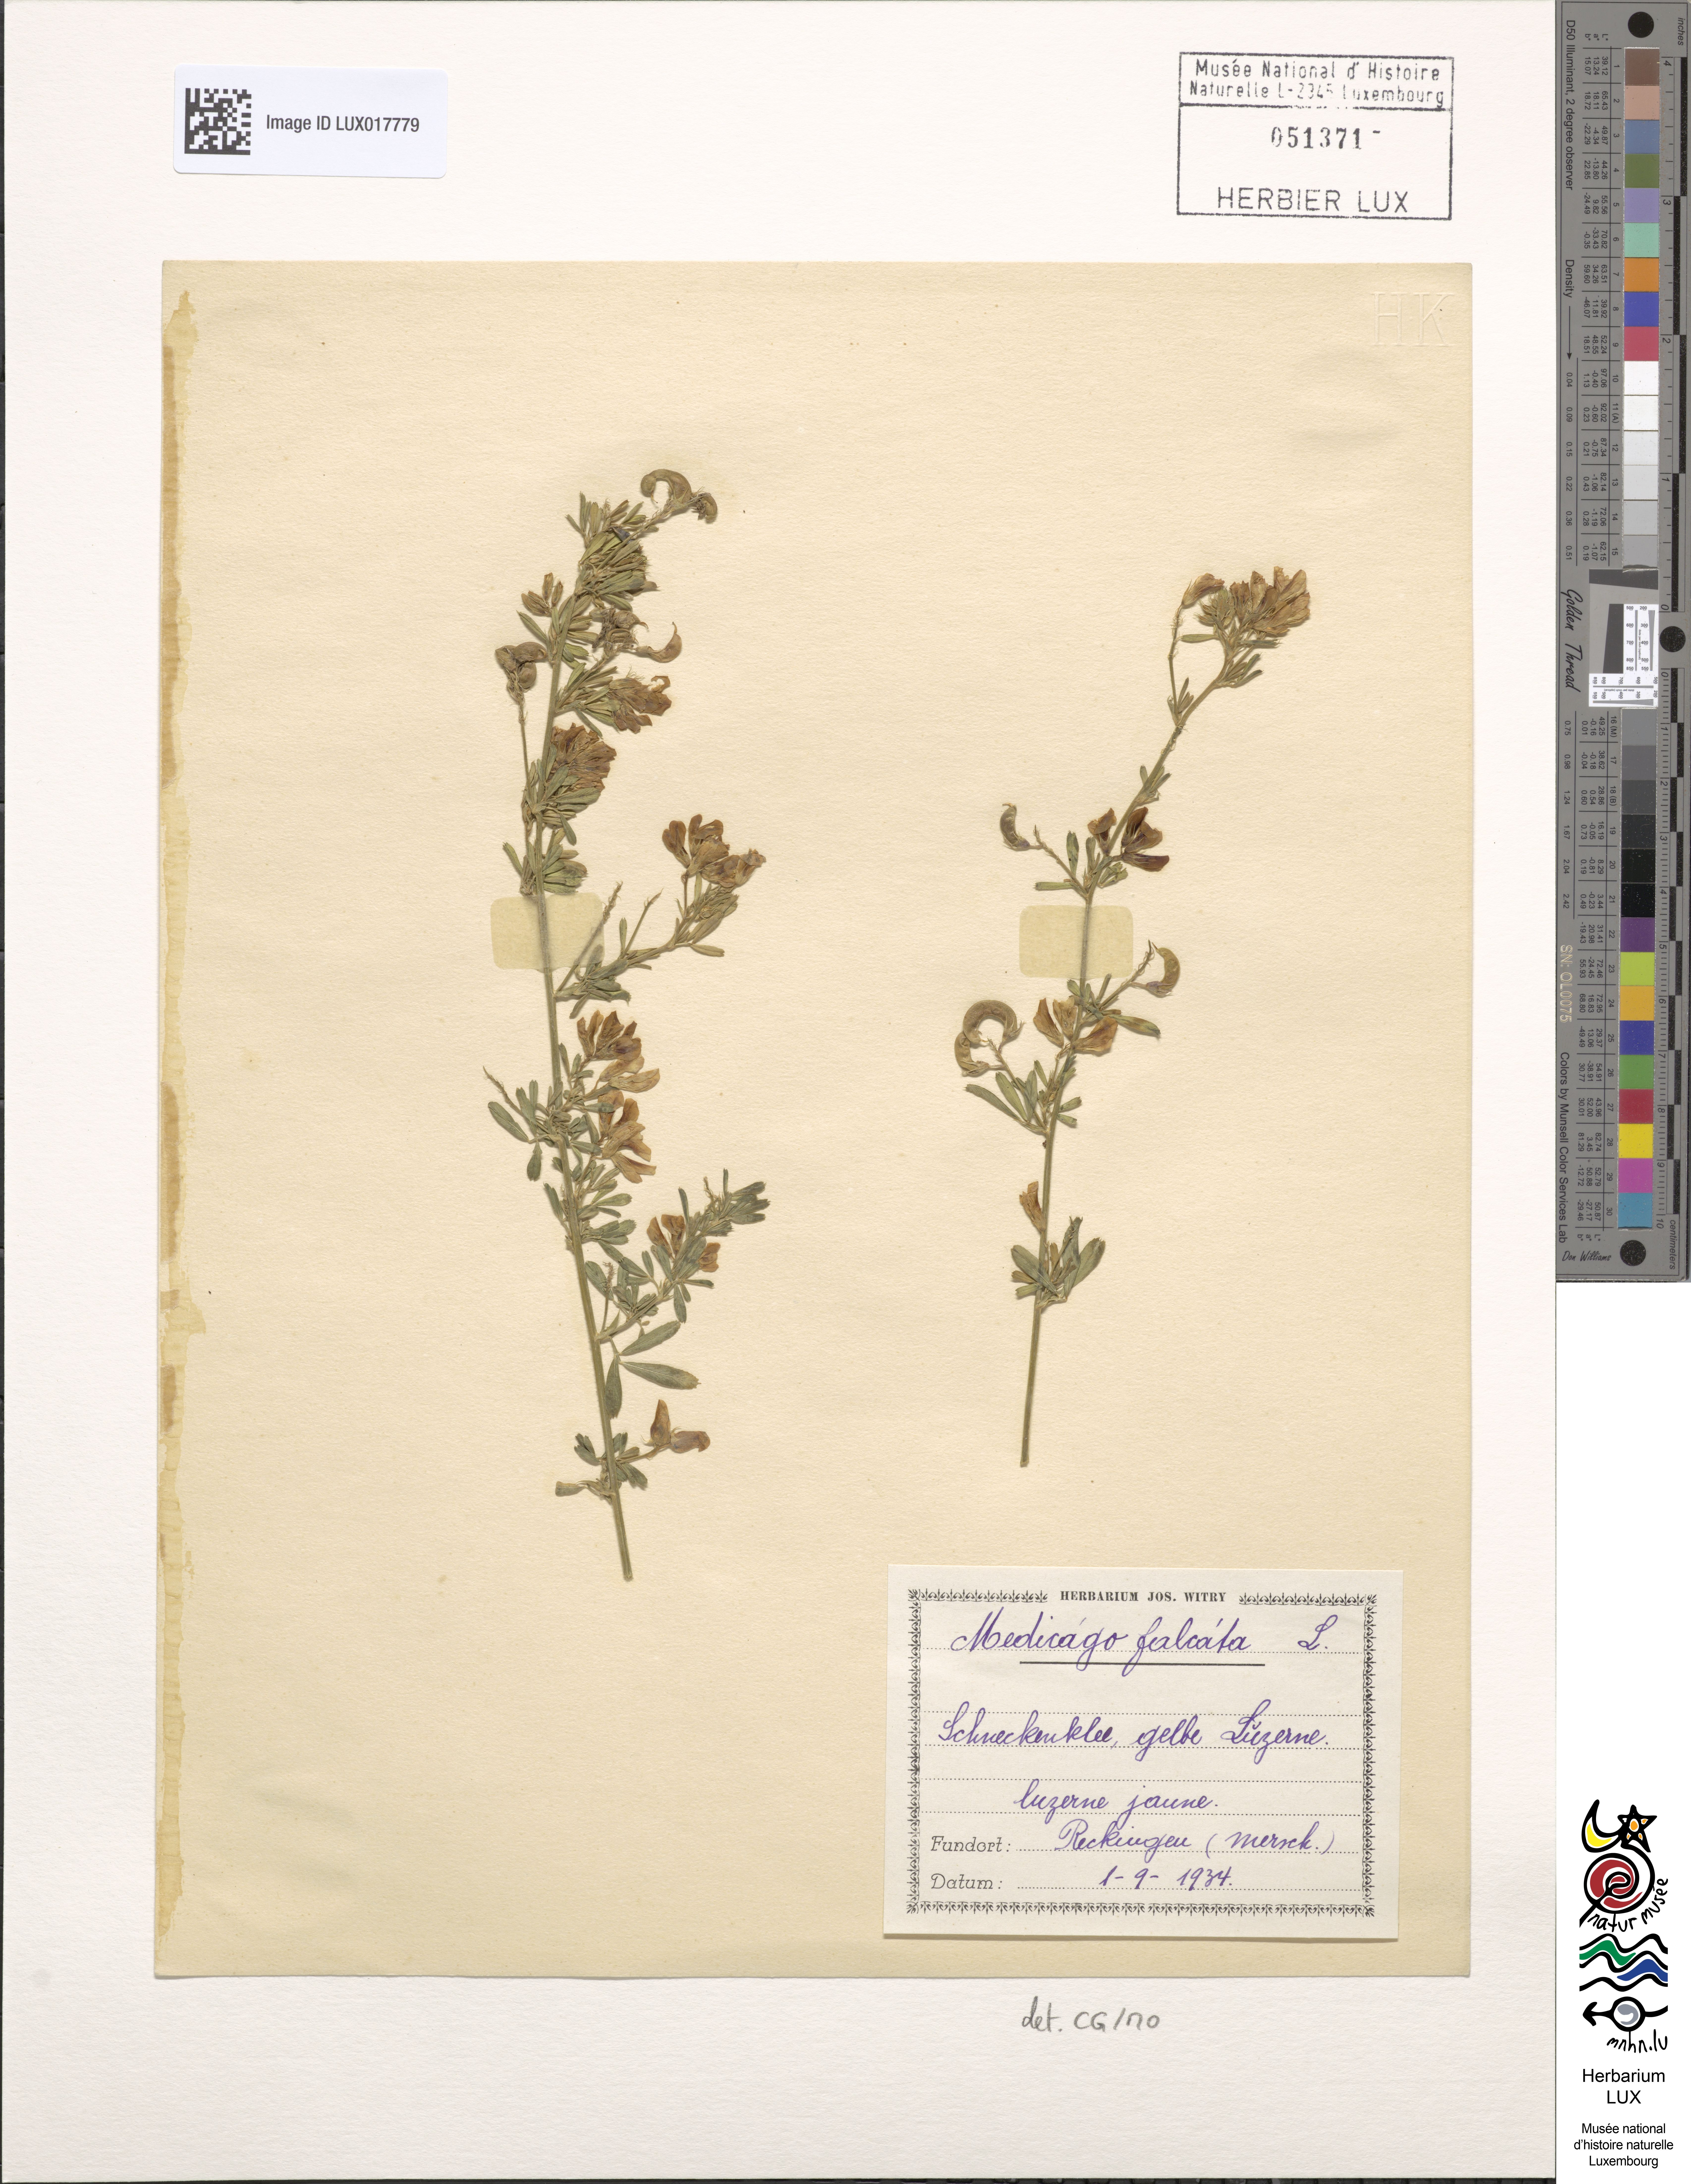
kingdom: Plantae
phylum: Tracheophyta
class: Magnoliopsida
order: Fabales
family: Fabaceae
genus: Medicago
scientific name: Medicago falcata
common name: Sickle medick
